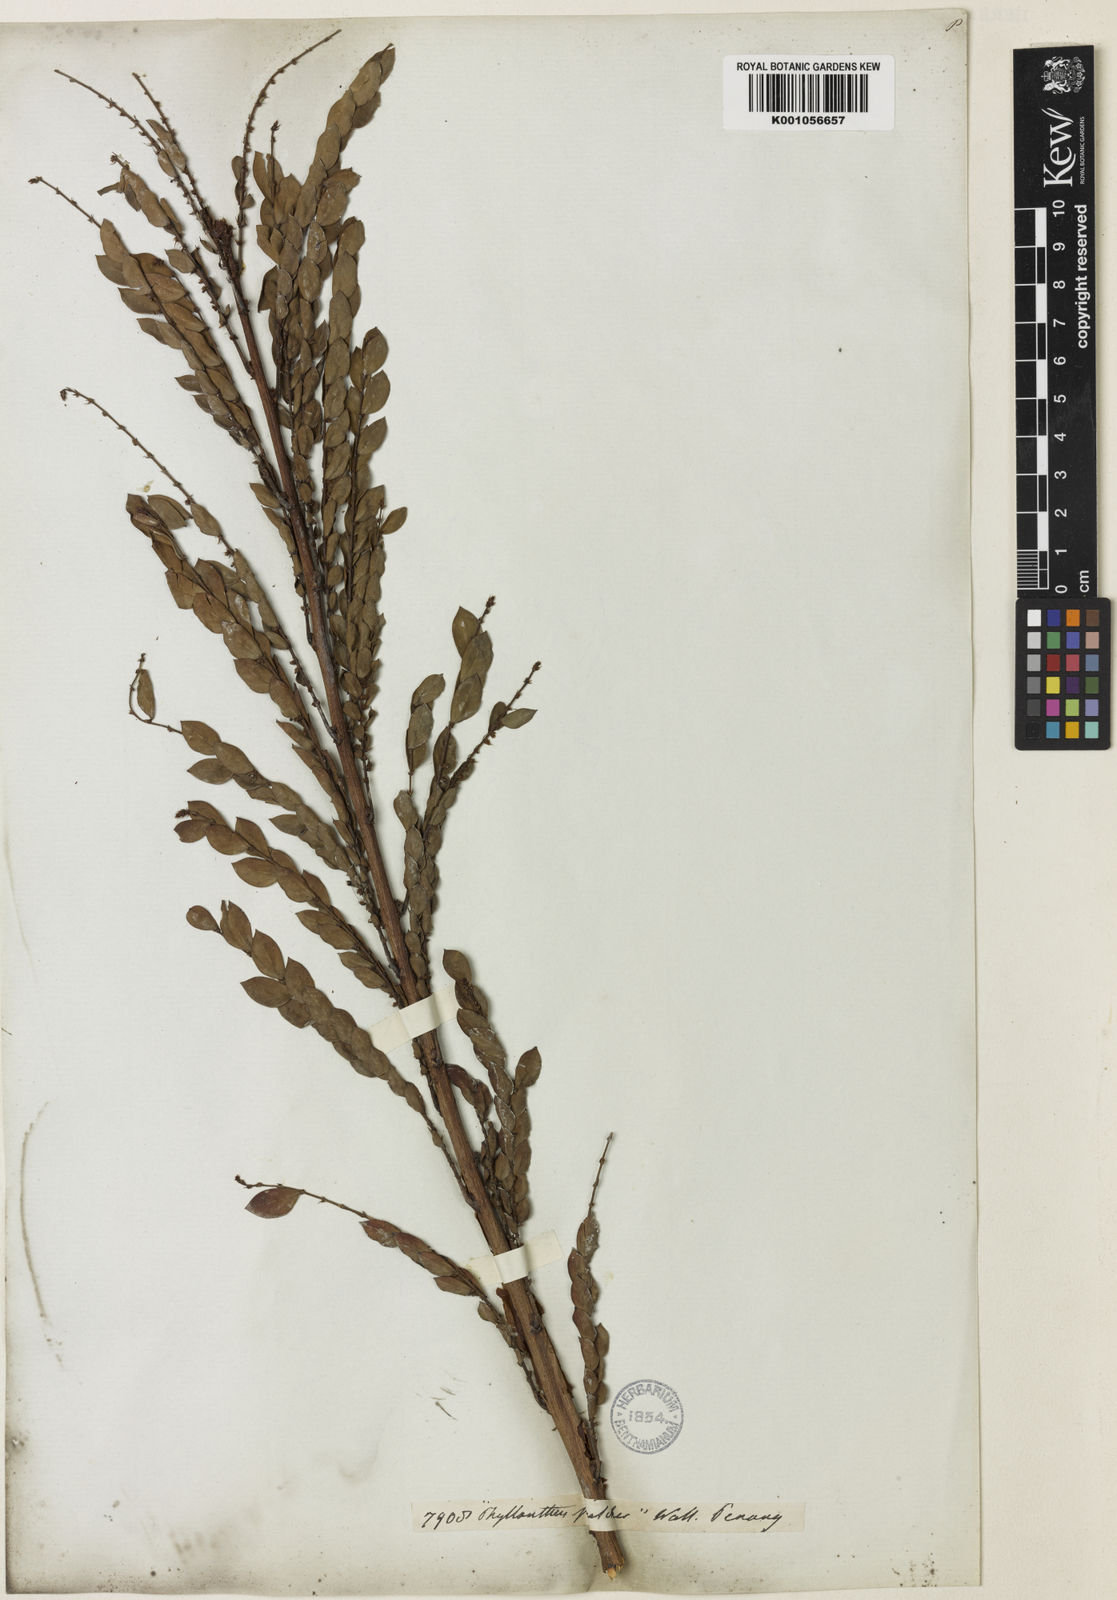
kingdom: Plantae
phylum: Tracheophyta
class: Magnoliopsida
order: Malpighiales
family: Phyllanthaceae
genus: Phyllanthus
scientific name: Phyllanthus
